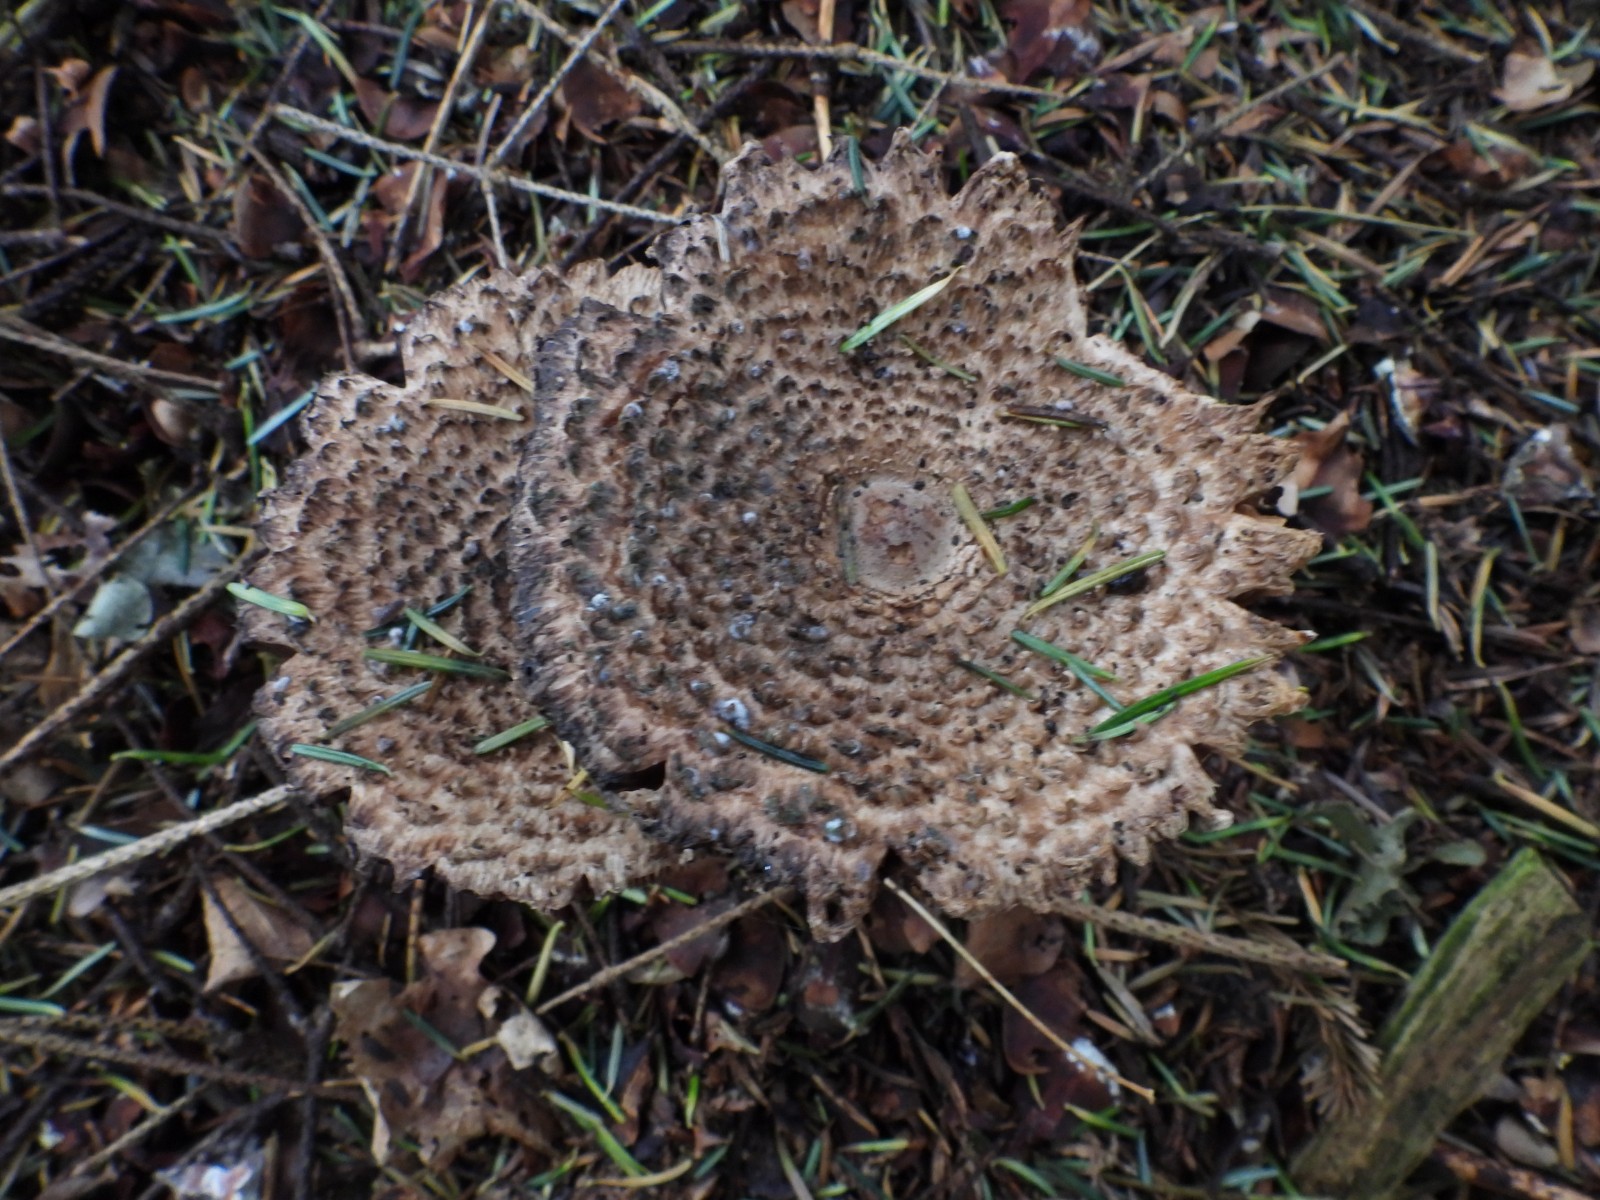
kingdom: Fungi
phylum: Basidiomycota
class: Agaricomycetes
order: Agaricales
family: Agaricaceae
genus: Leucoagaricus
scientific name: Leucoagaricus nympharum
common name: gran-silkehat
